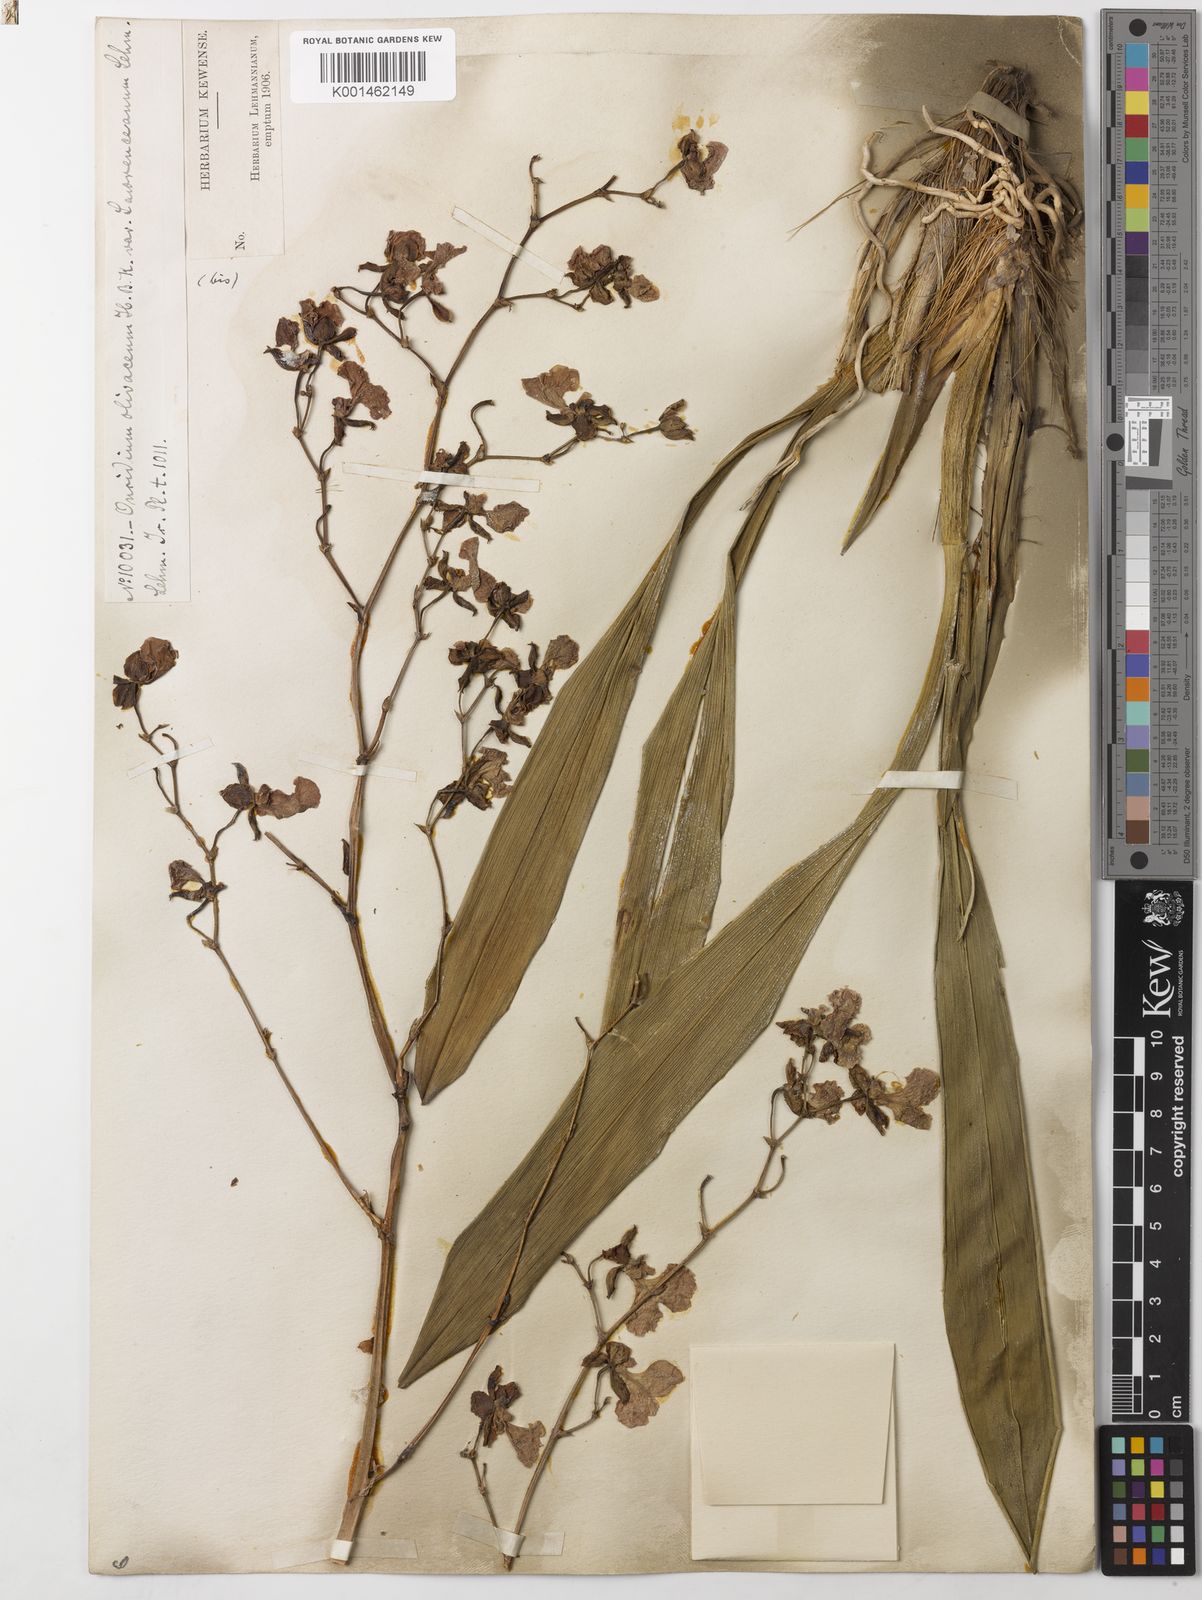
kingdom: Plantae
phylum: Tracheophyta
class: Liliopsida
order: Asparagales
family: Orchidaceae
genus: Caucaea
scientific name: Caucaea olivacea
